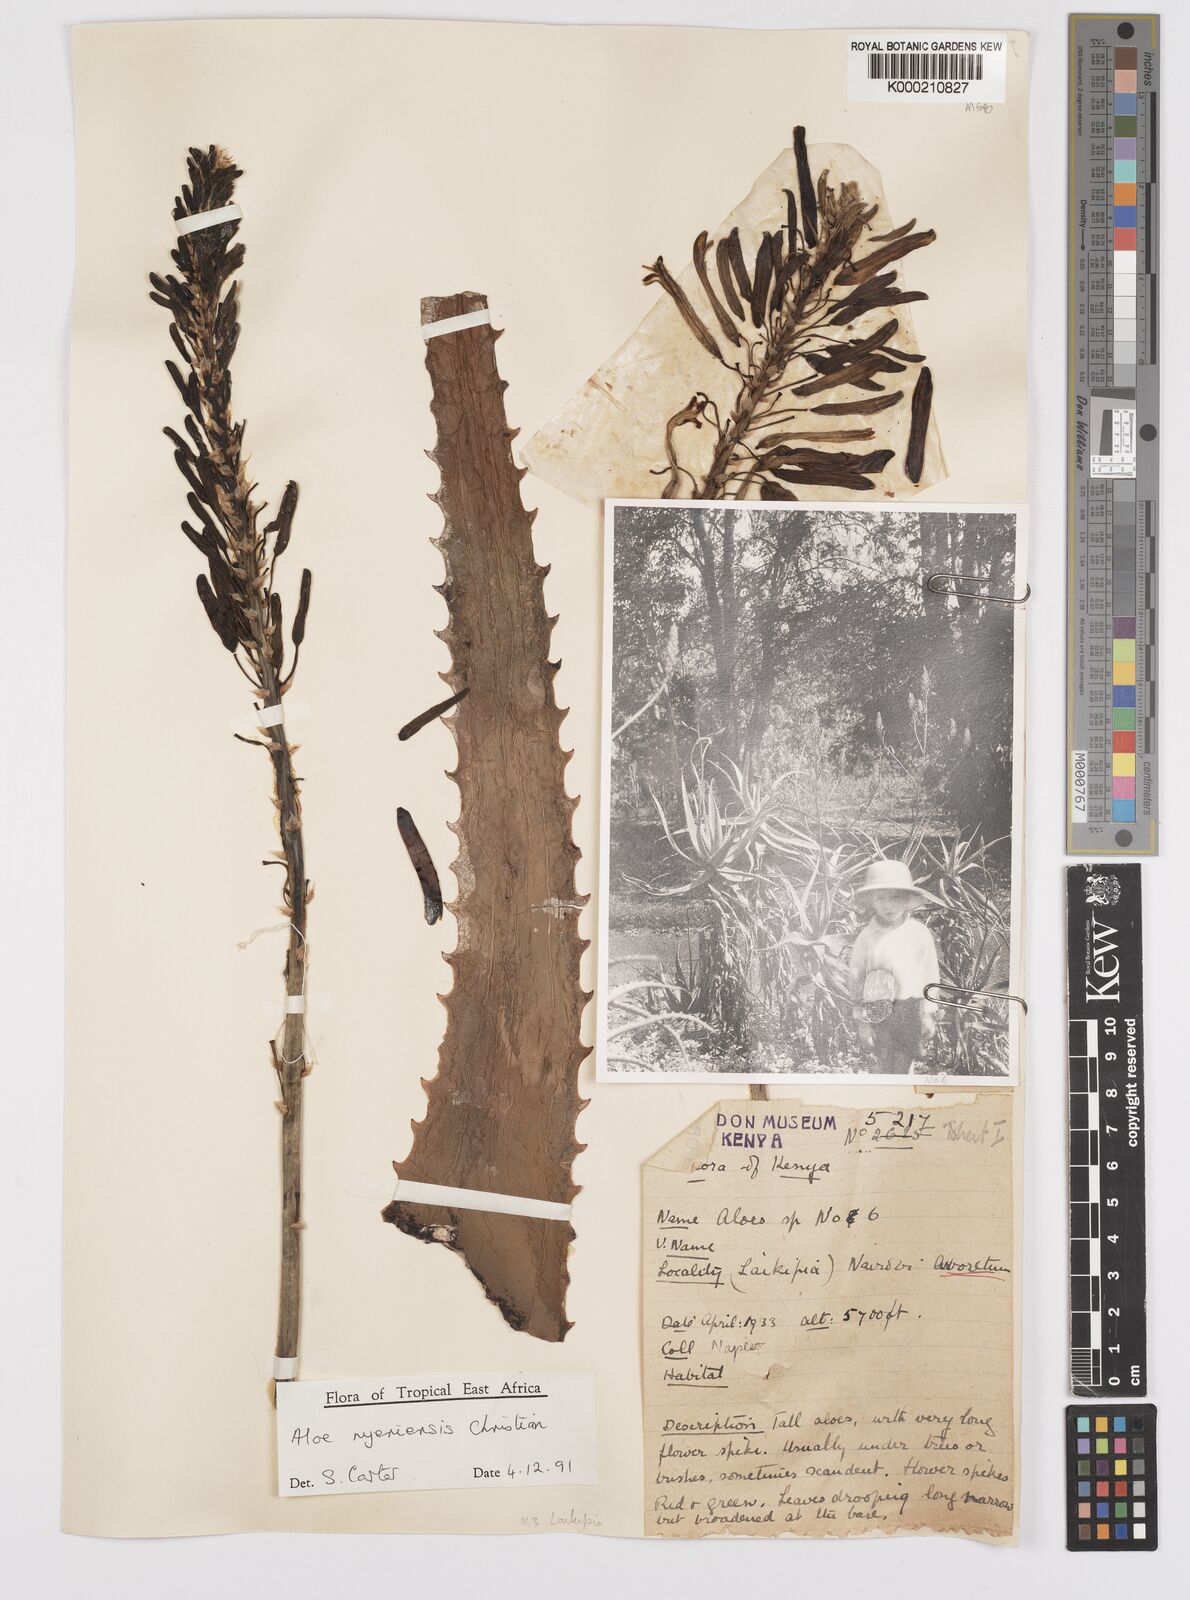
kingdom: Plantae
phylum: Tracheophyta
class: Liliopsida
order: Asparagales
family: Asphodelaceae
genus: Aloe
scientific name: Aloe nyeriensis
